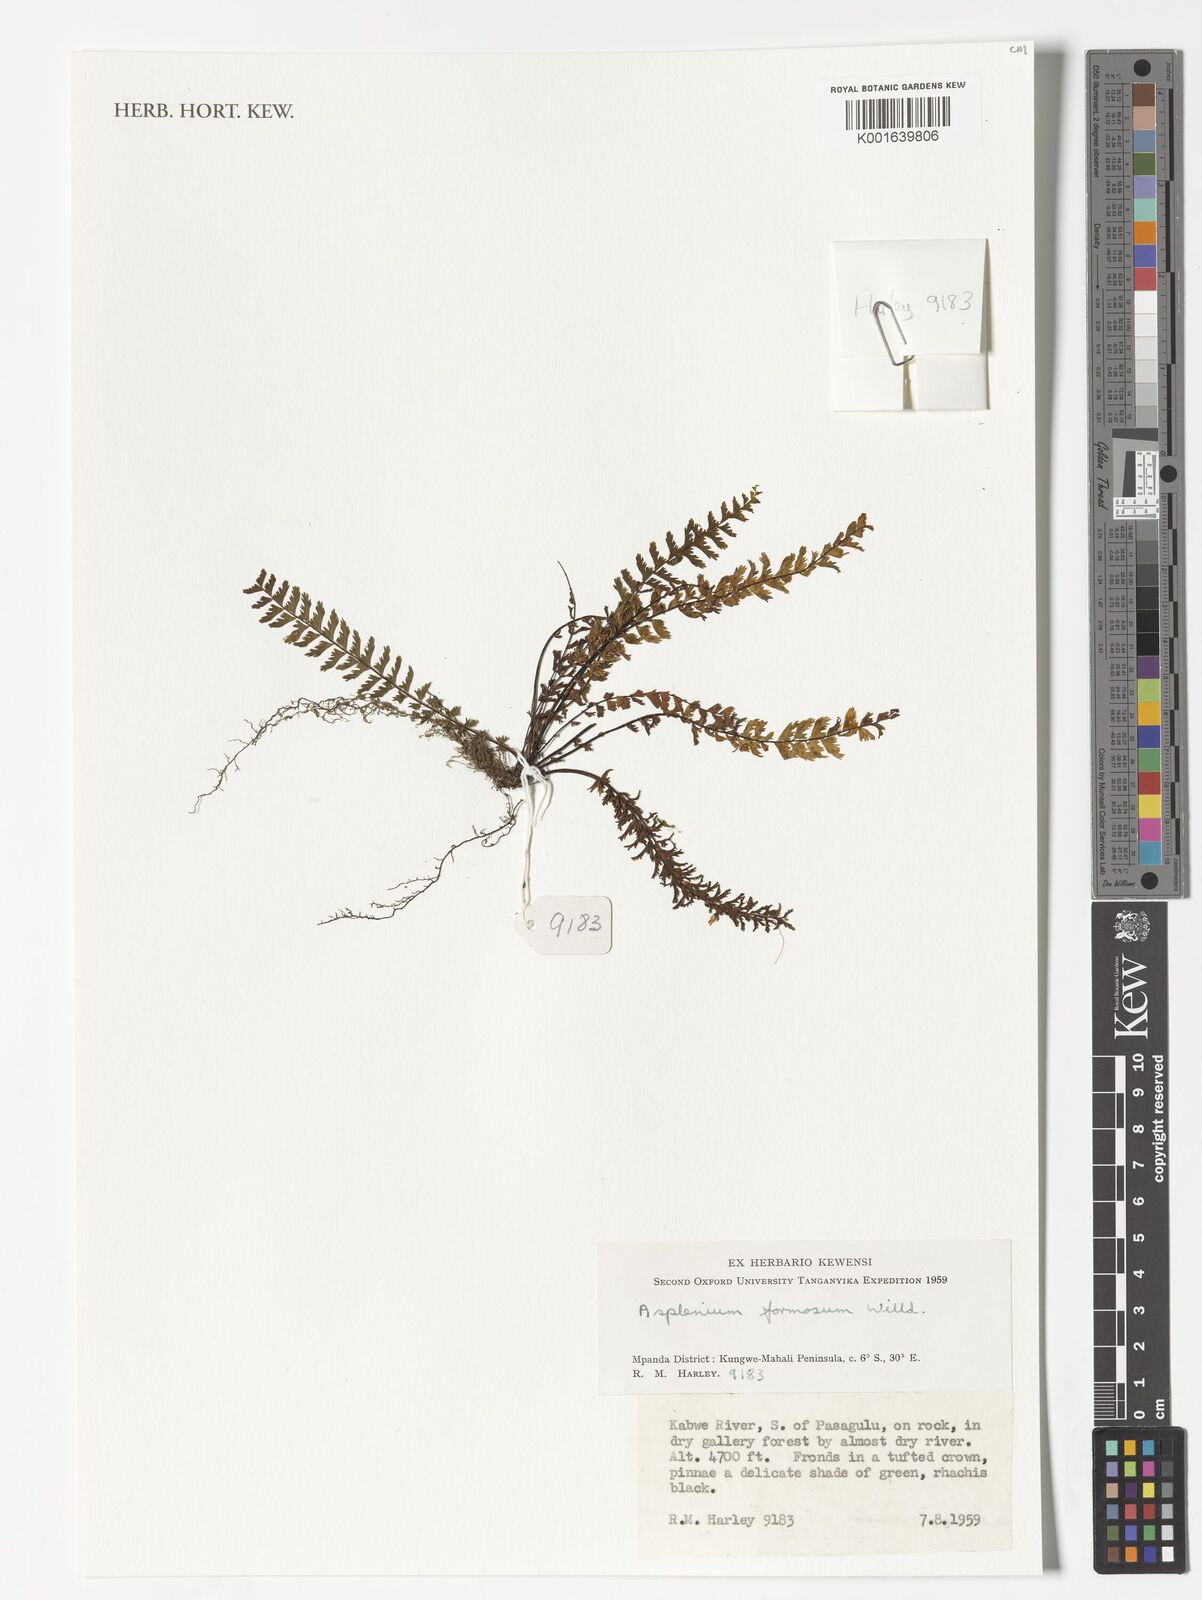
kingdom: Plantae
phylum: Tracheophyta
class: Polypodiopsida
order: Polypodiales
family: Aspleniaceae
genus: Asplenium
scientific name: Asplenium formosum
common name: Showy spleenwort
